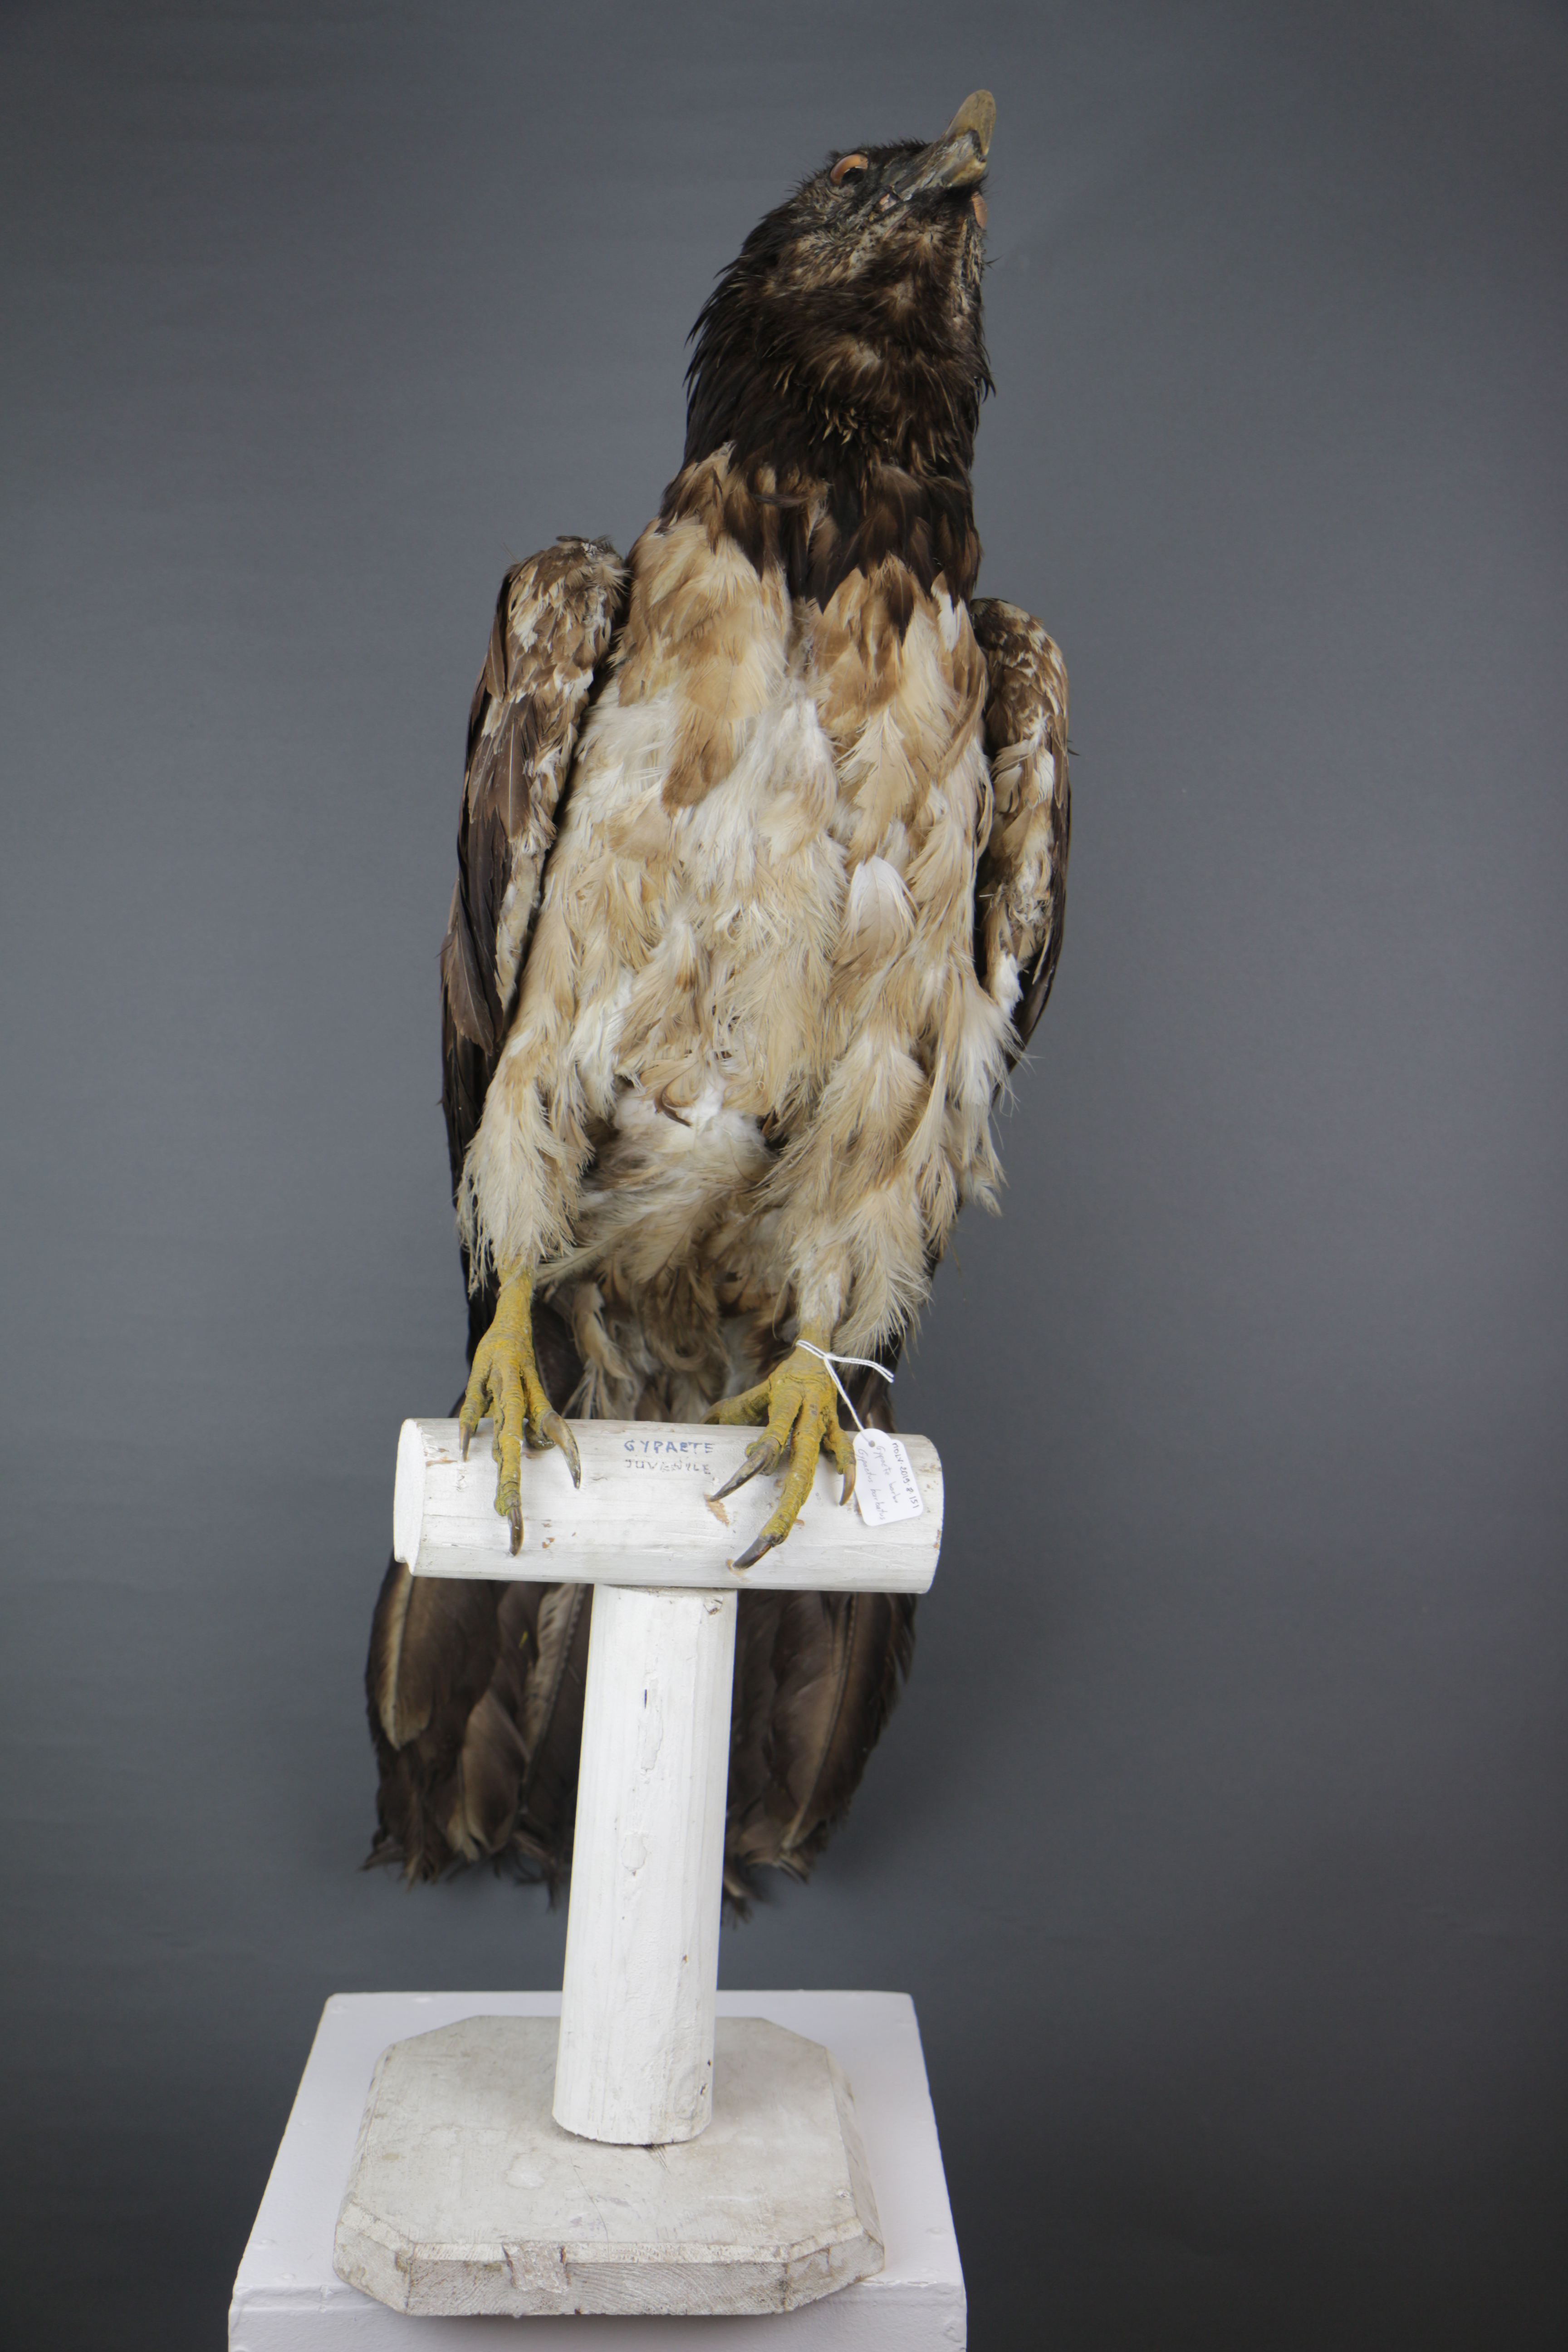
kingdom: Animalia
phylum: Chordata
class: Aves
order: Accipitriformes
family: Accipitridae
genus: Gypaetus
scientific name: Gypaetus barbatus
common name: Bearded vulture
